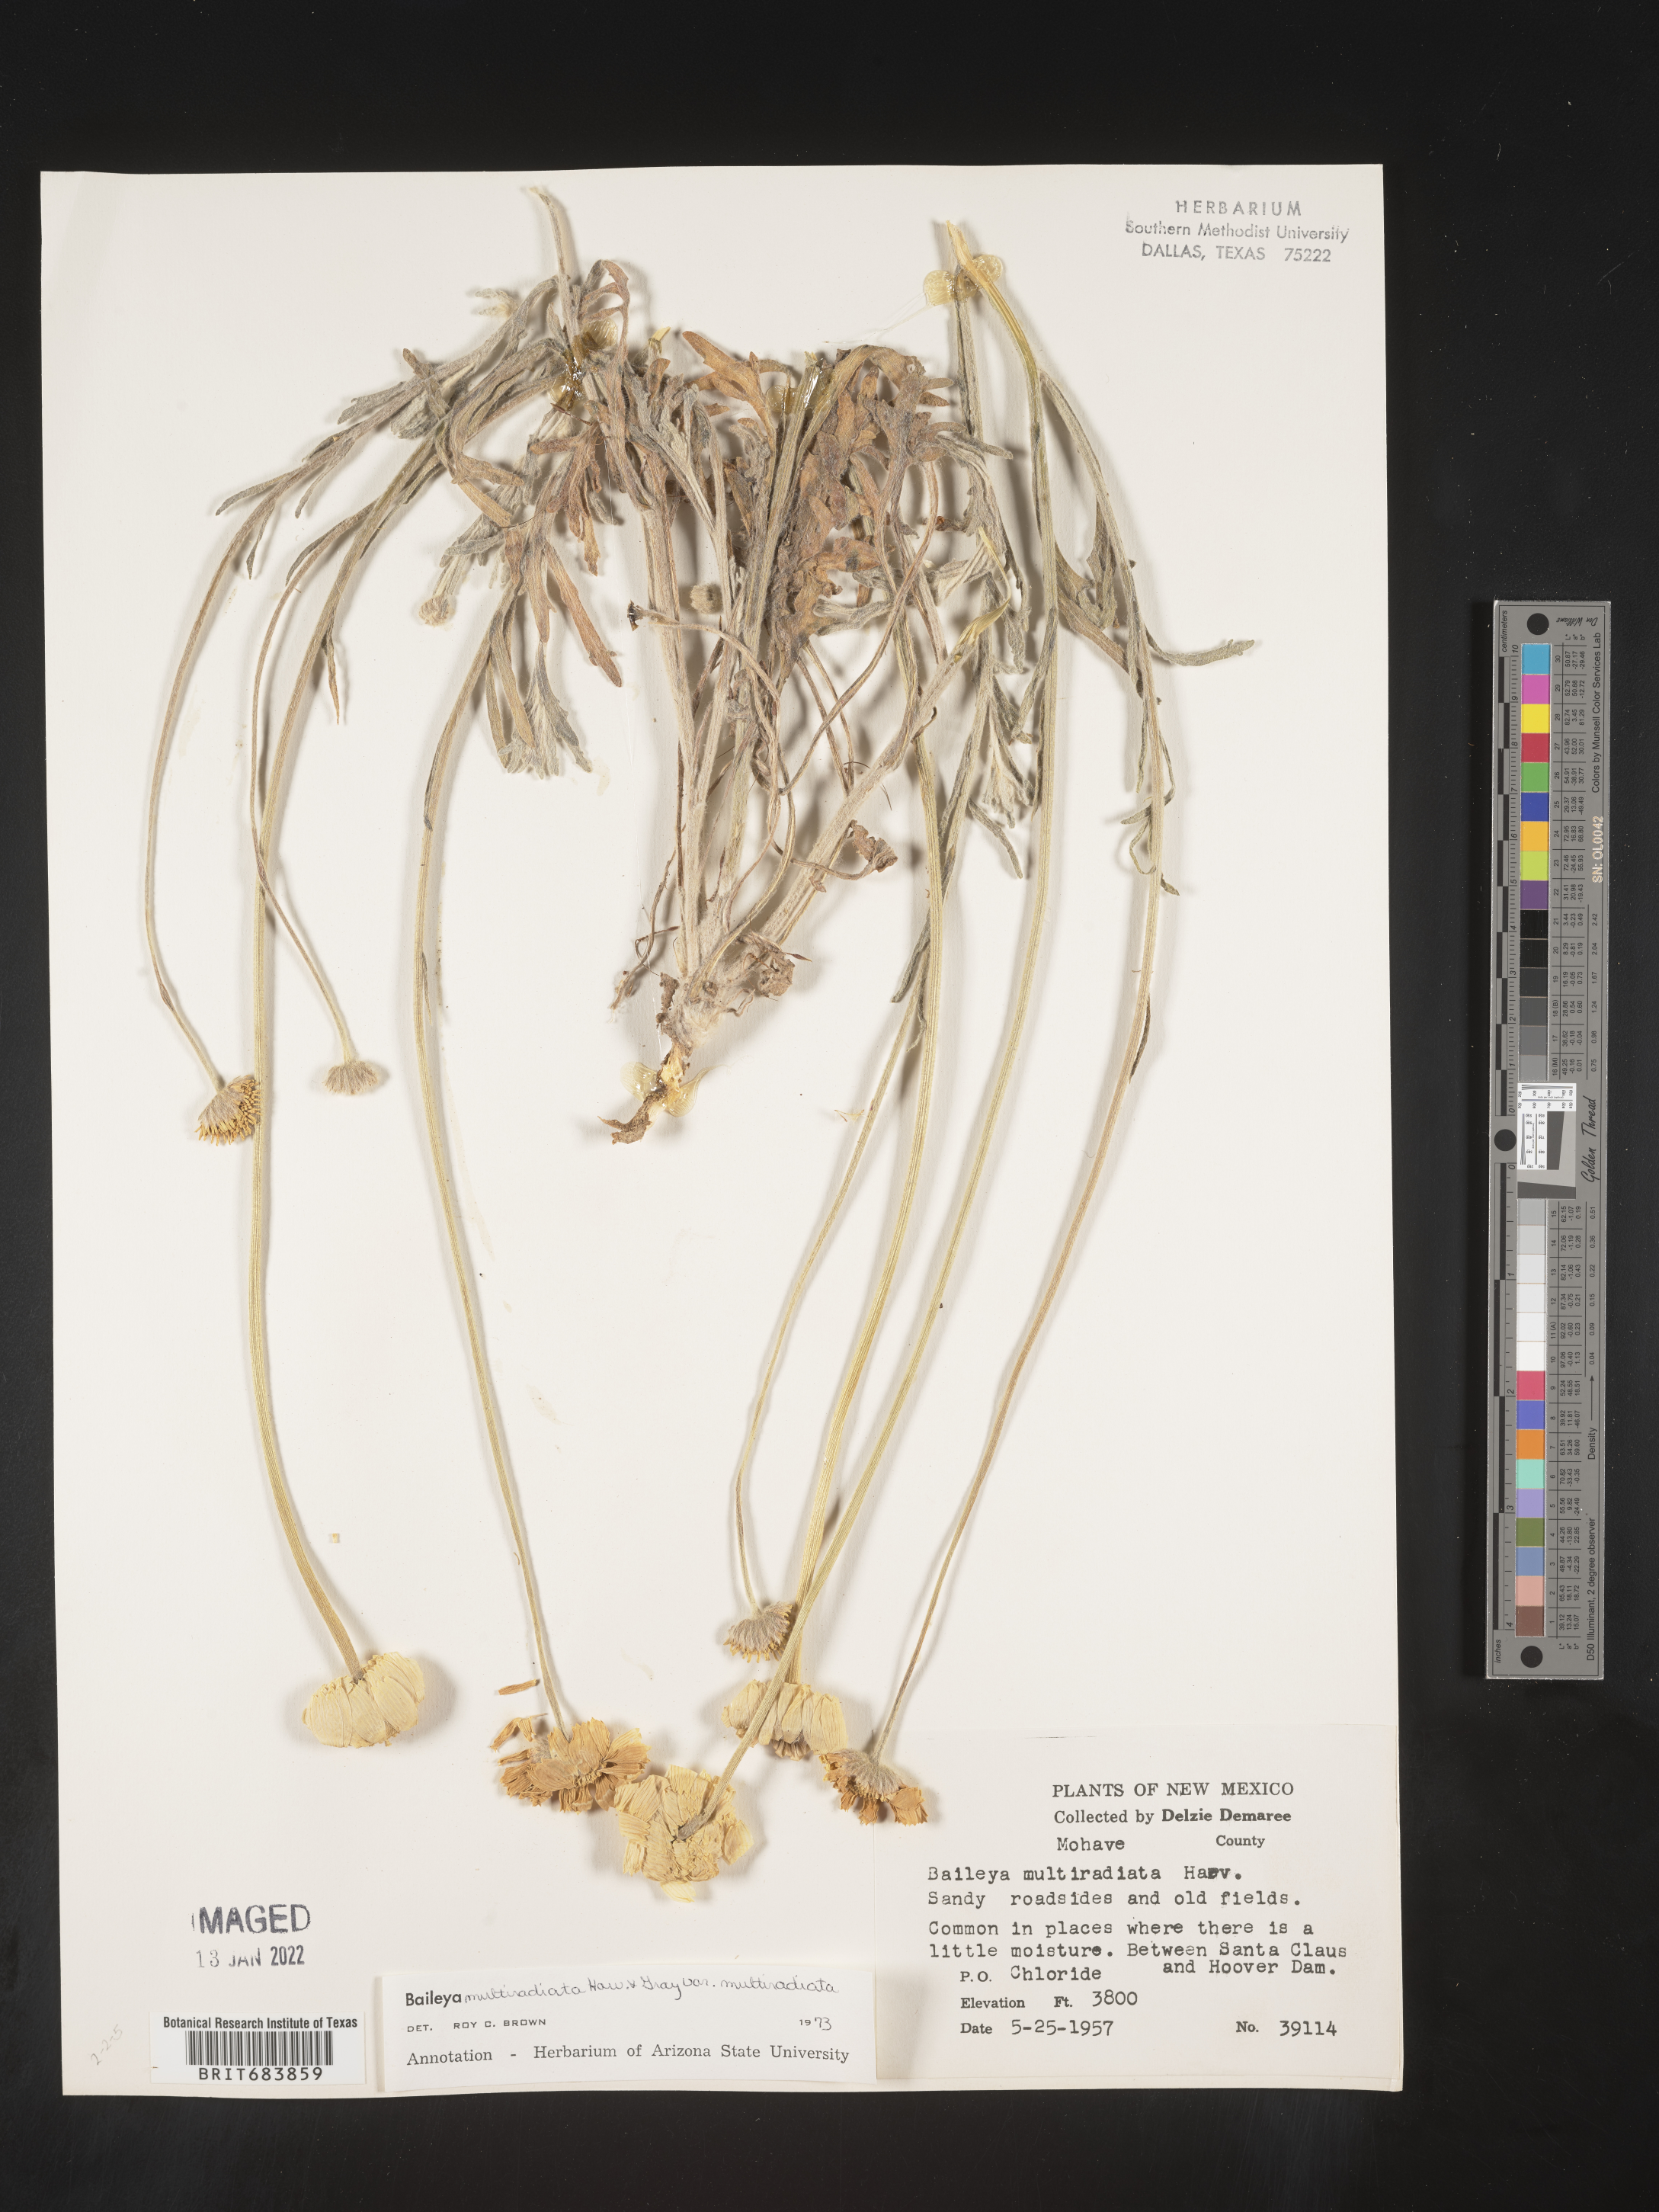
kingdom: Plantae
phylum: Tracheophyta
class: Magnoliopsida
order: Asterales
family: Asteraceae
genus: Baileya
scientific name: Baileya multiradiata
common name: Desert-marigold
